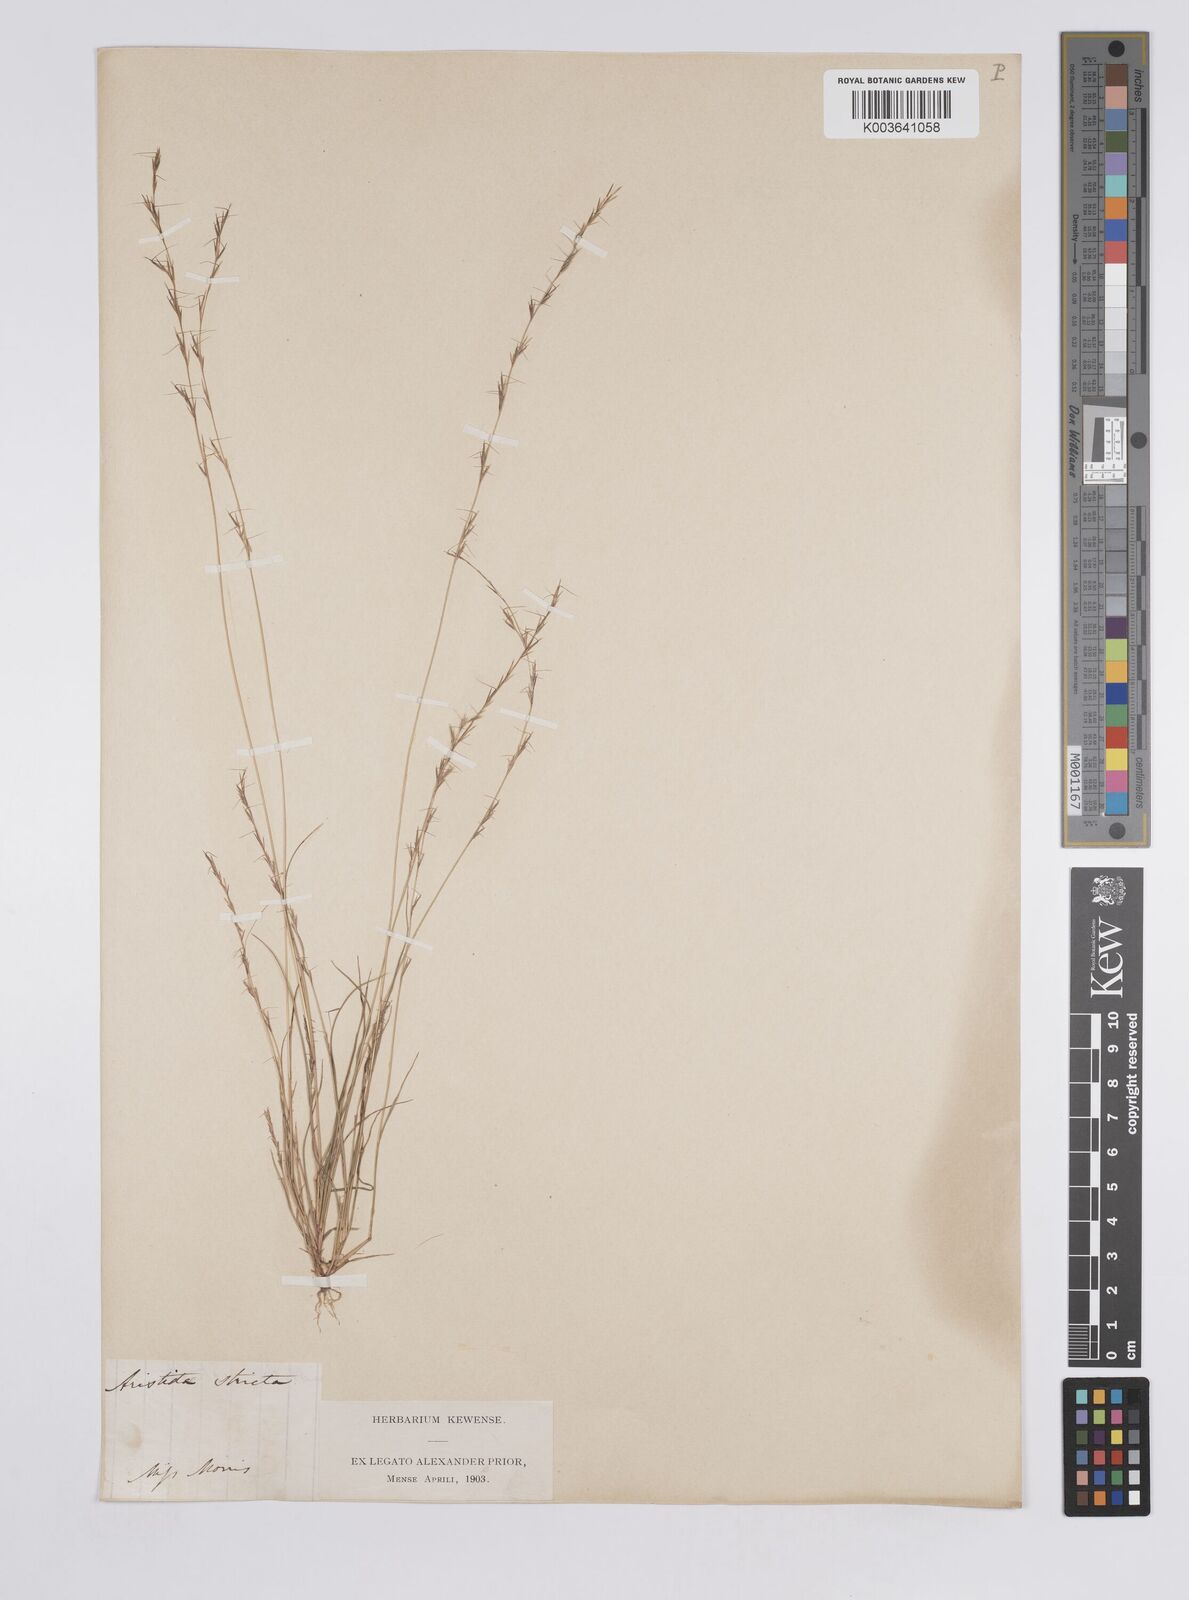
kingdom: Plantae
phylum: Tracheophyta
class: Liliopsida
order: Poales
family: Poaceae
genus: Aristida
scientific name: Aristida stricta
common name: Pineland three-awn
